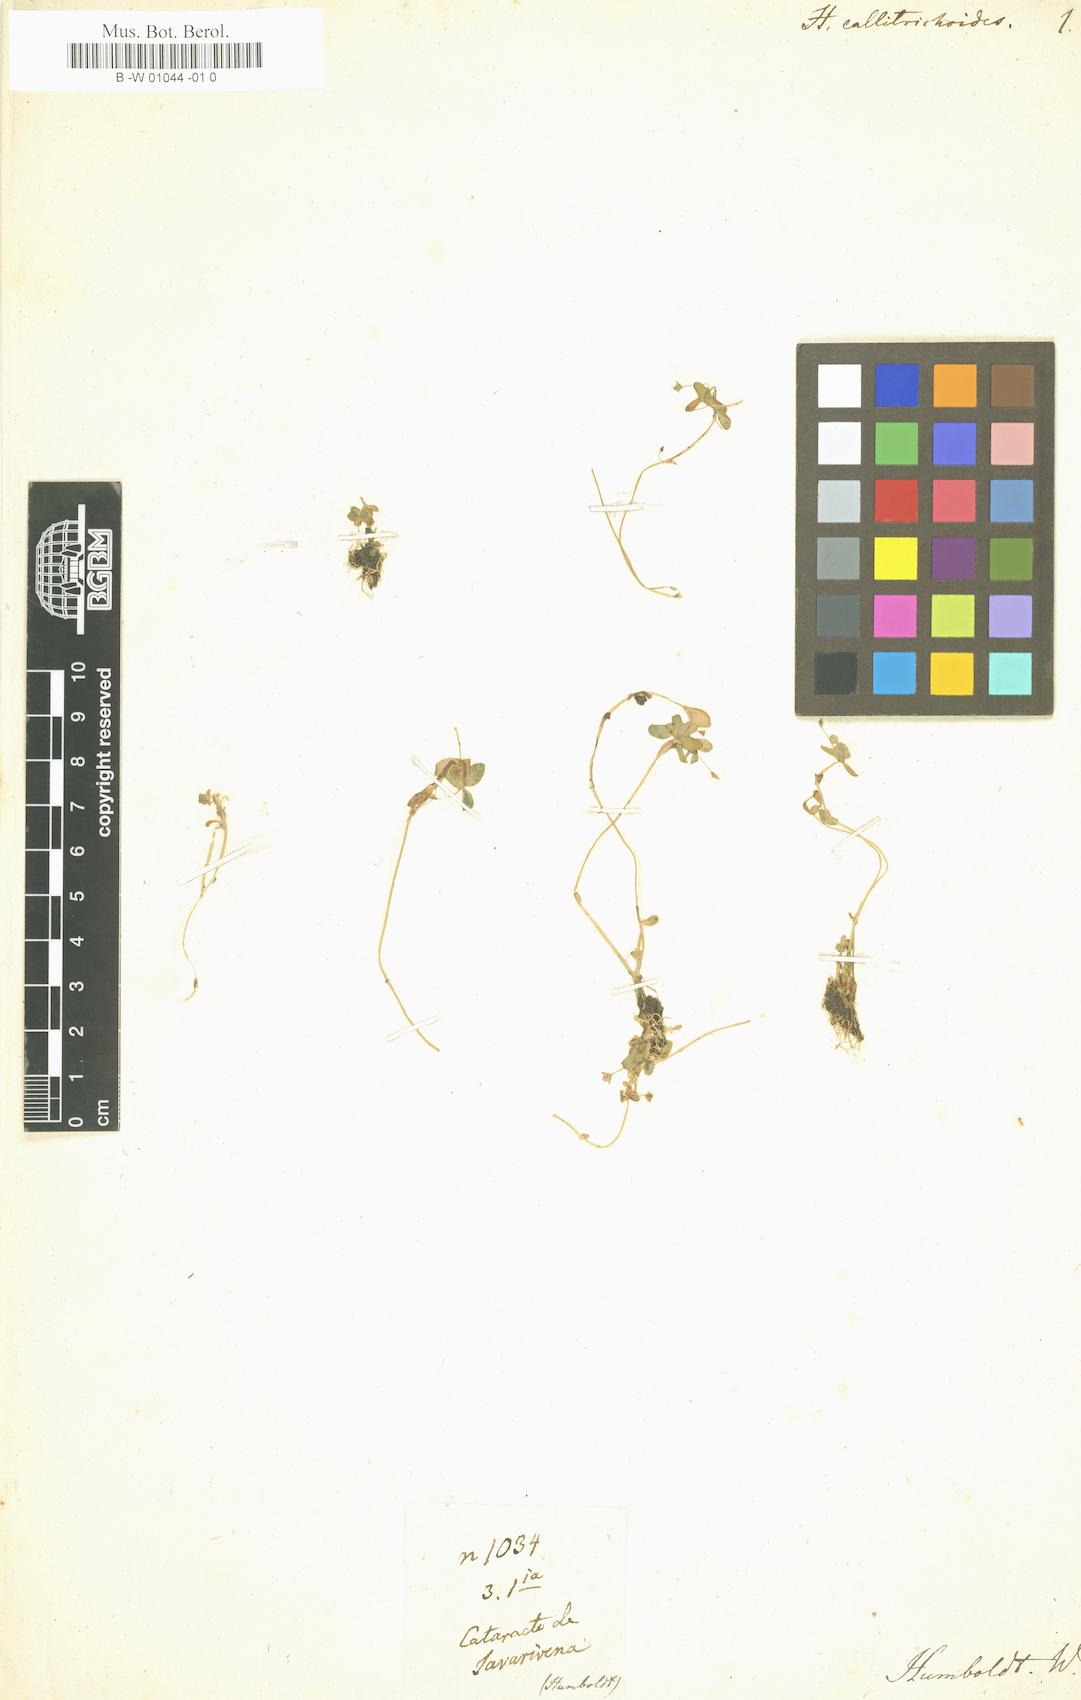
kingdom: Plantae
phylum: Tracheophyta
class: Magnoliopsida
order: Lamiales
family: Plantaginaceae
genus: Bacopa
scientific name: Bacopa callitrichoides
